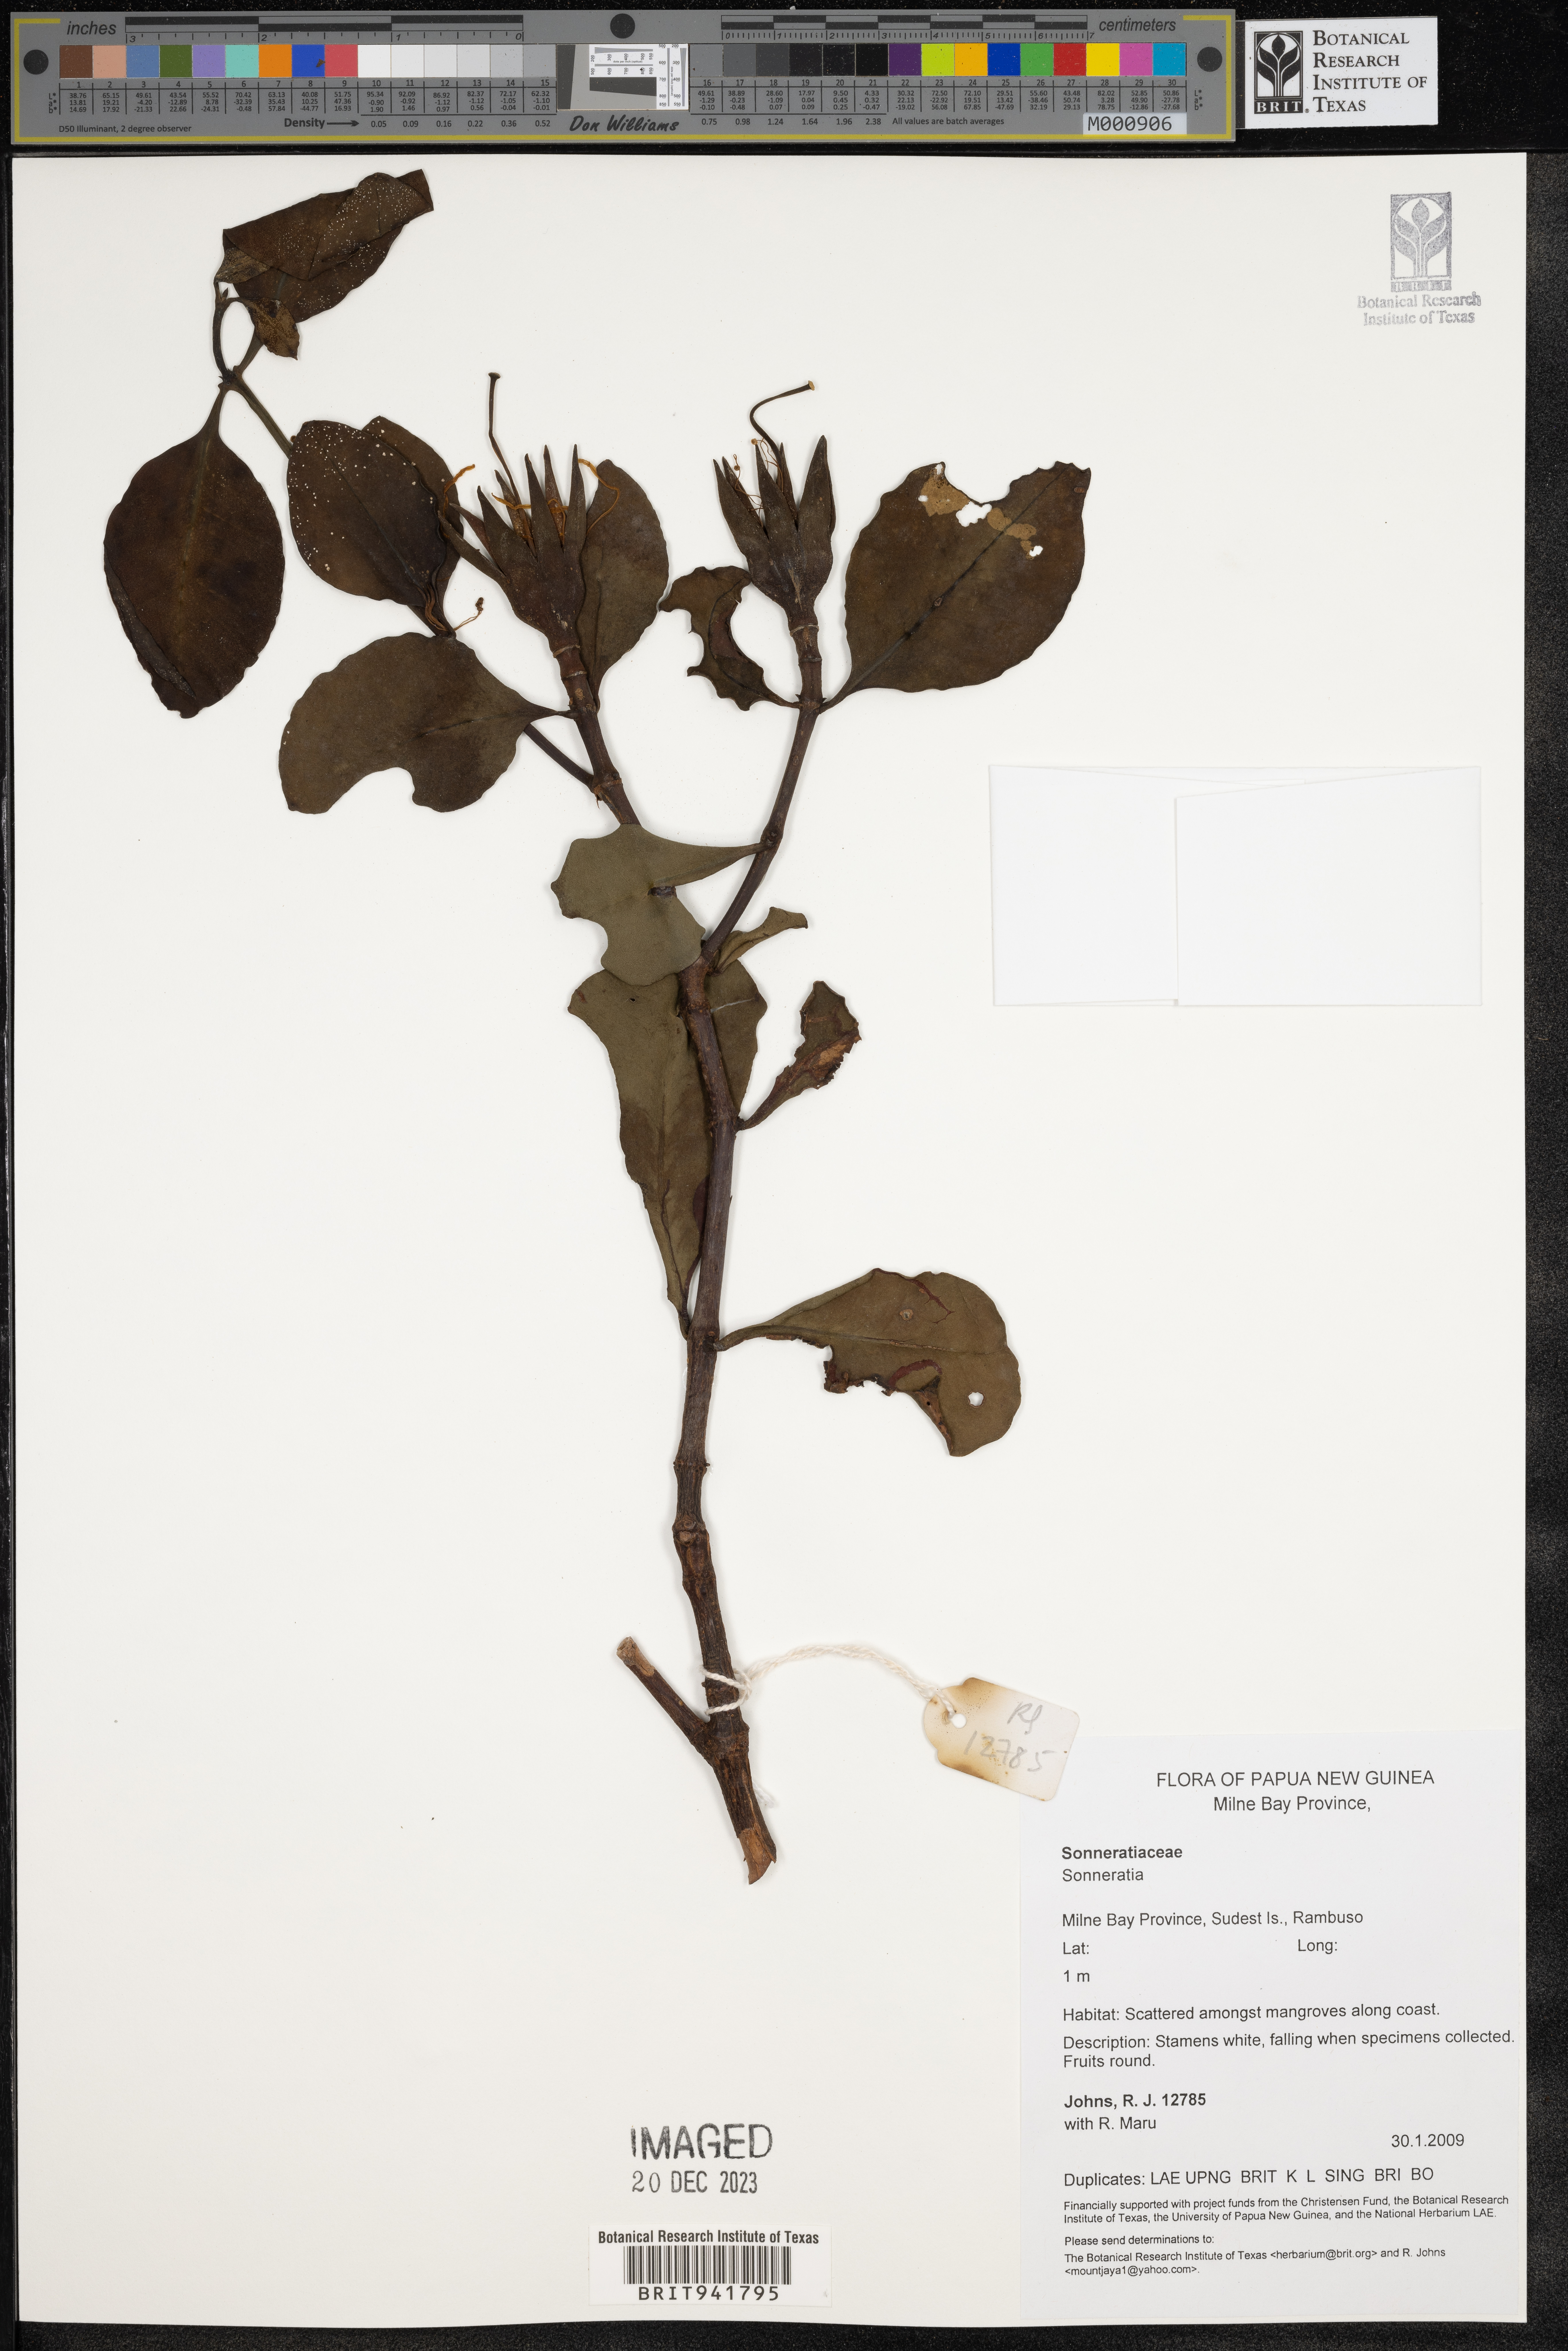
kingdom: Plantae
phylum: Tracheophyta
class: Magnoliopsida
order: Myrtales
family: Lythraceae
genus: Sonneratia
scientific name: Sonneratia
